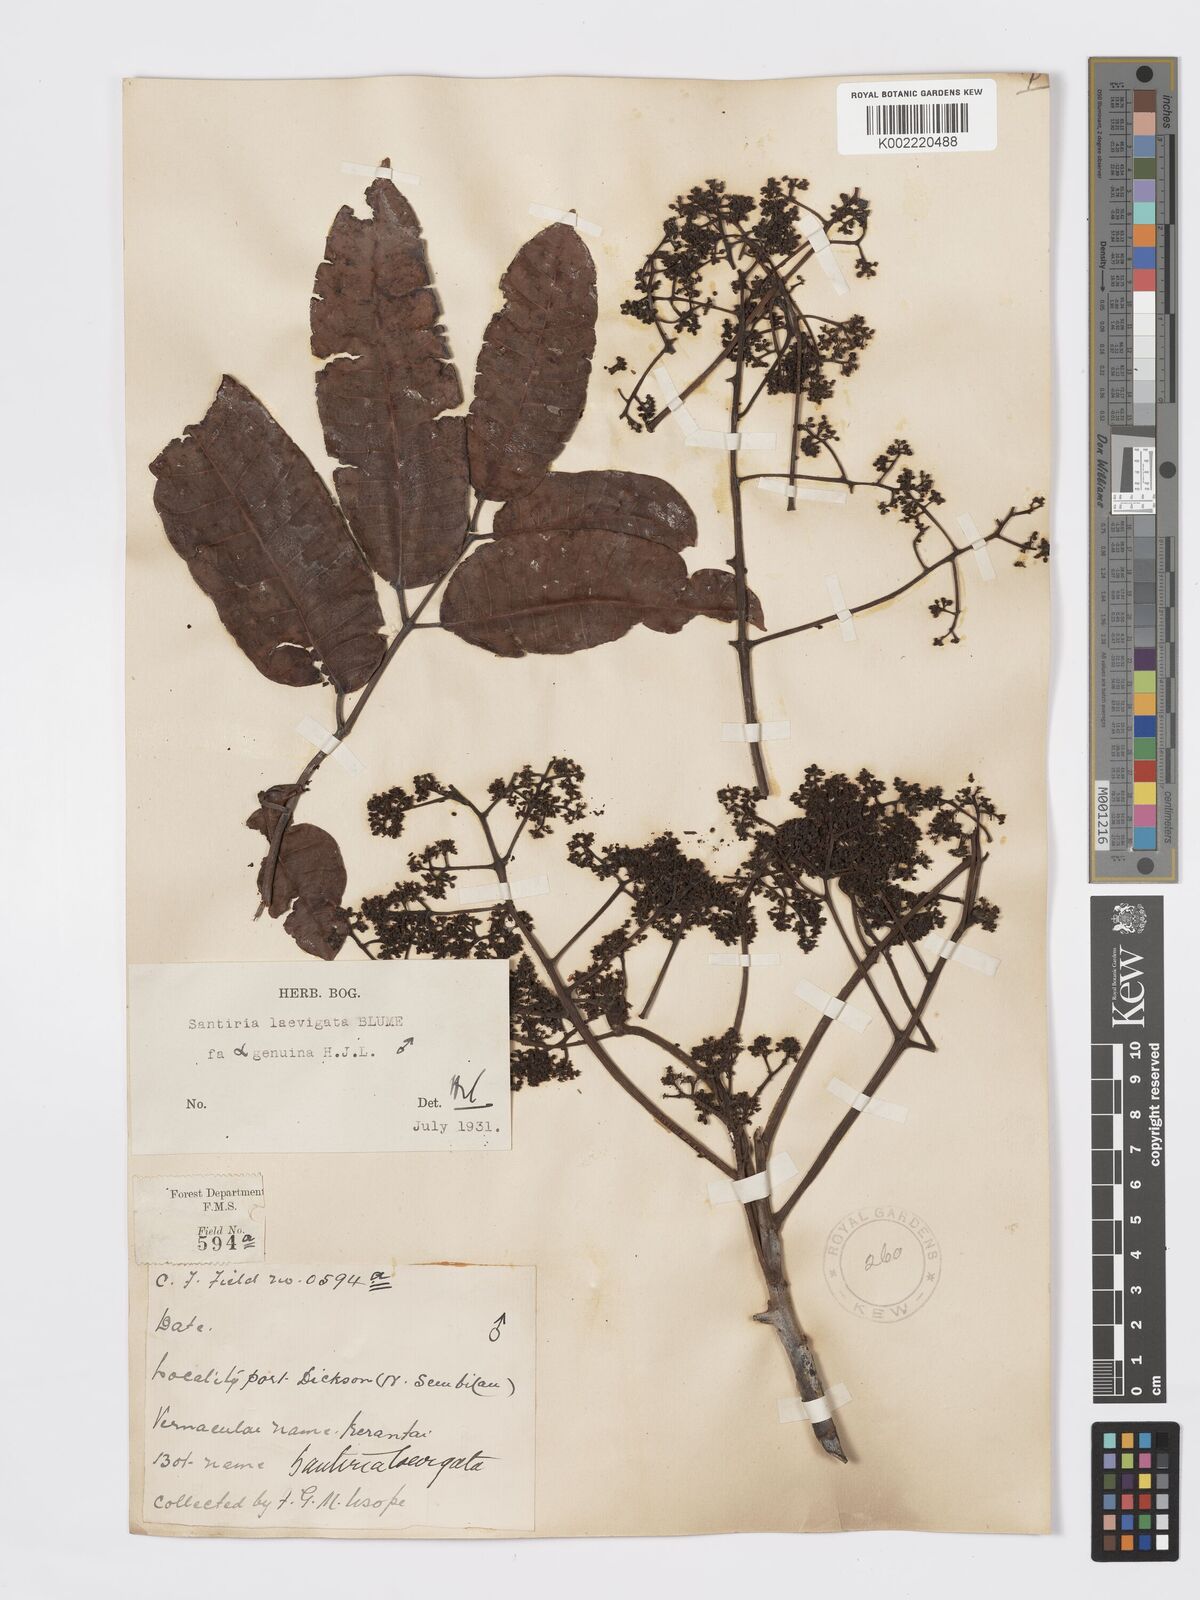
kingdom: Plantae
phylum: Tracheophyta
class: Magnoliopsida
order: Sapindales
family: Burseraceae
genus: Santiria
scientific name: Santiria laevigata
